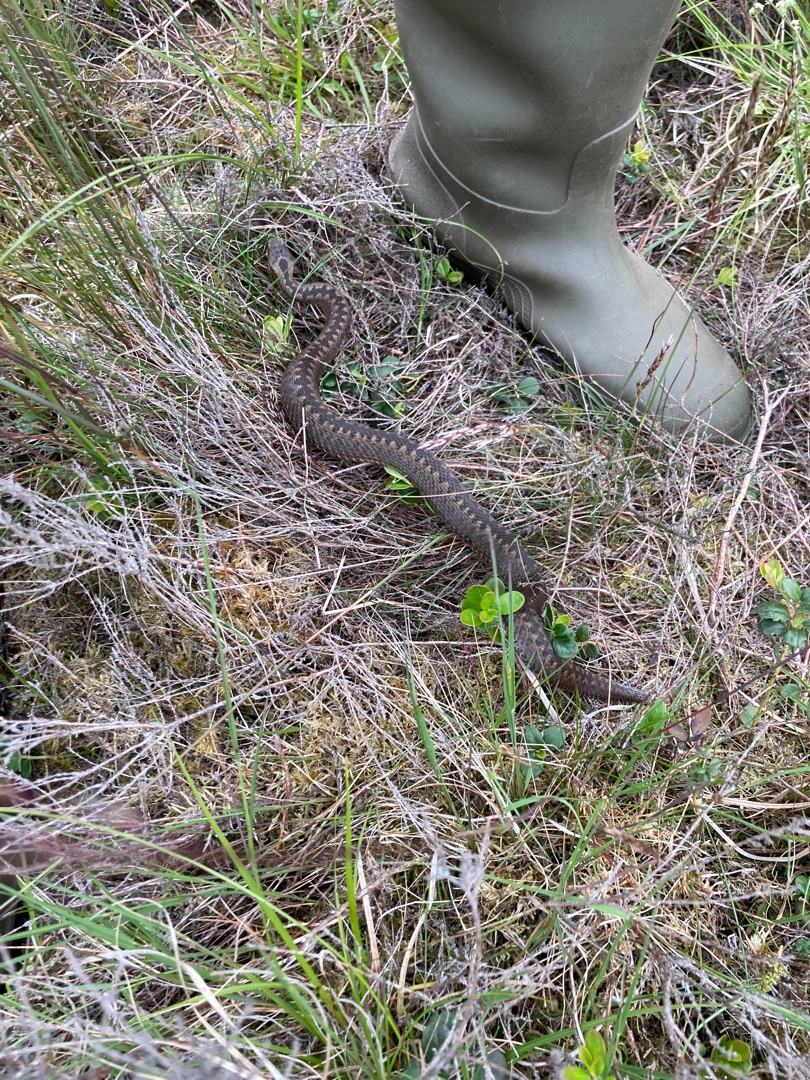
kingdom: Animalia
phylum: Chordata
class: Squamata
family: Viperidae
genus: Vipera
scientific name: Vipera berus
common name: Hugorm
